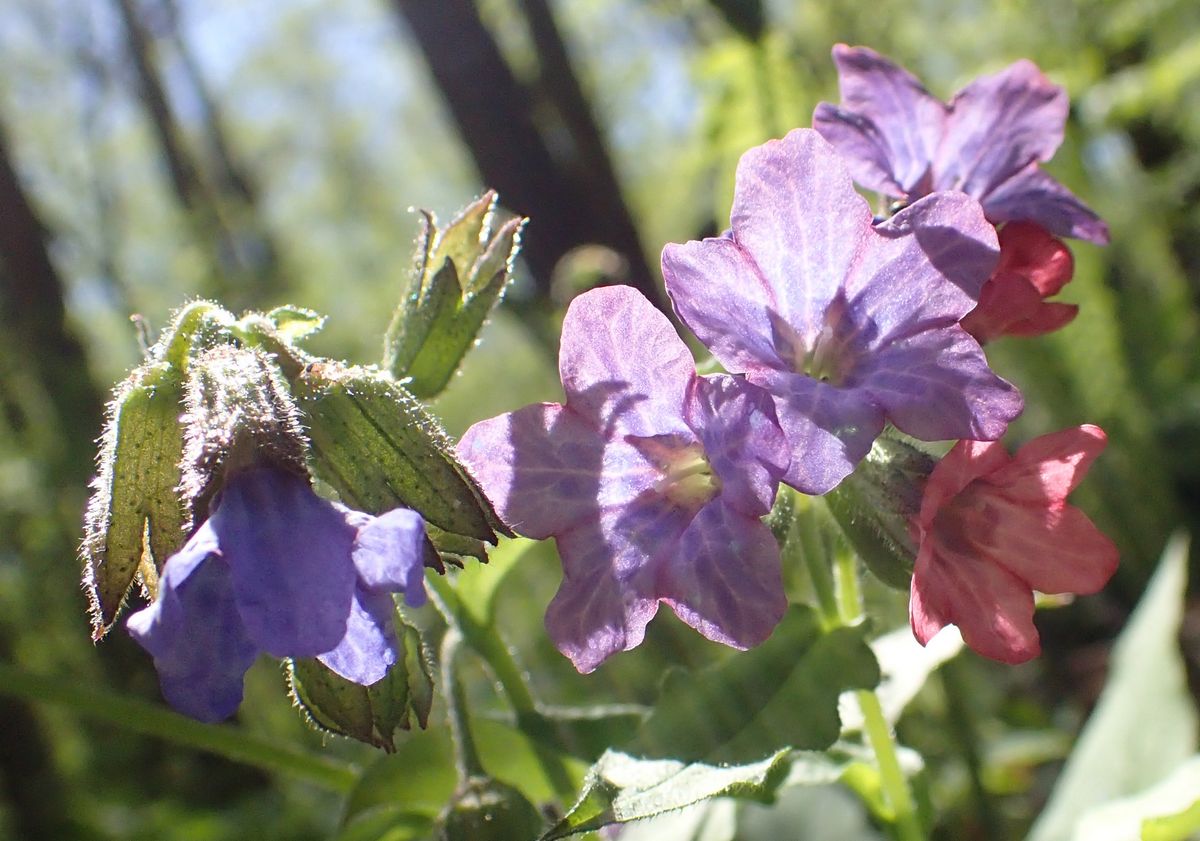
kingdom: Plantae
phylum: Tracheophyta
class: Magnoliopsida
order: Boraginales
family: Boraginaceae
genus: Pulmonaria
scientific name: Pulmonaria obscura
